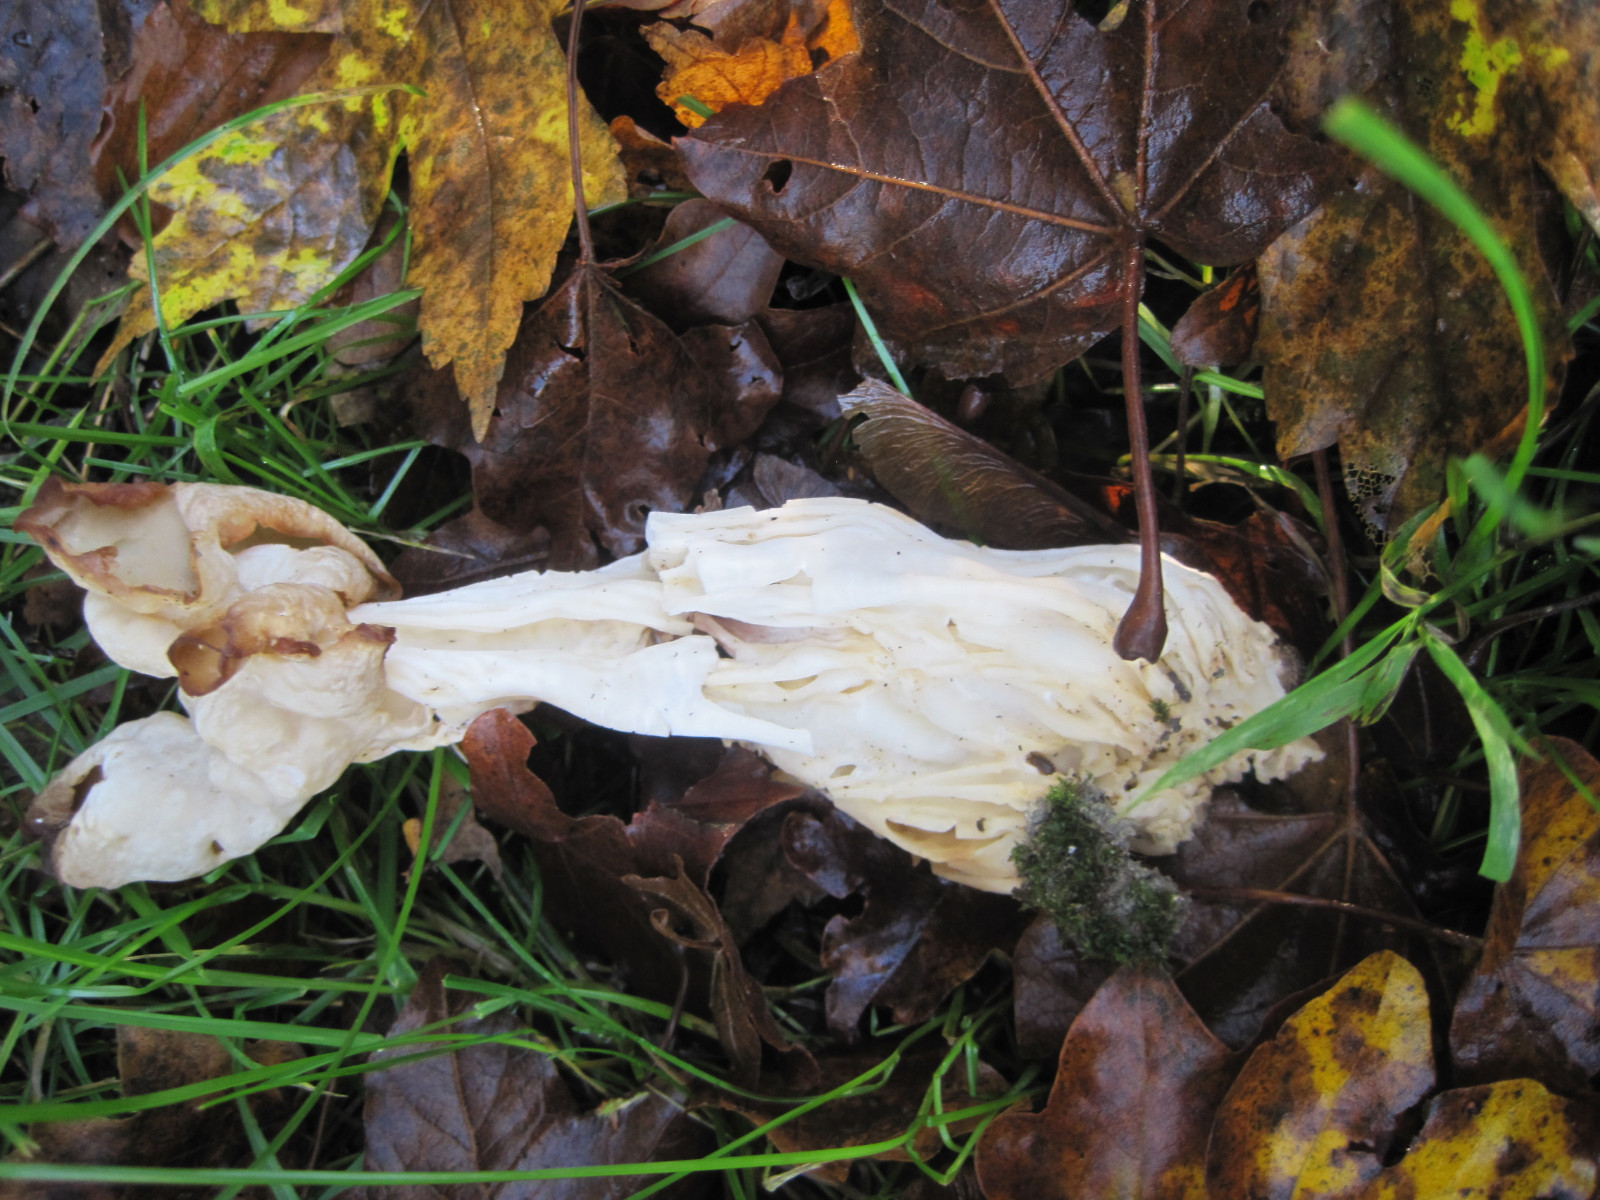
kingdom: Fungi
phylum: Ascomycota
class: Pezizomycetes
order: Pezizales
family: Helvellaceae
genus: Helvella
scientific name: Helvella crispa
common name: kruset foldhat
